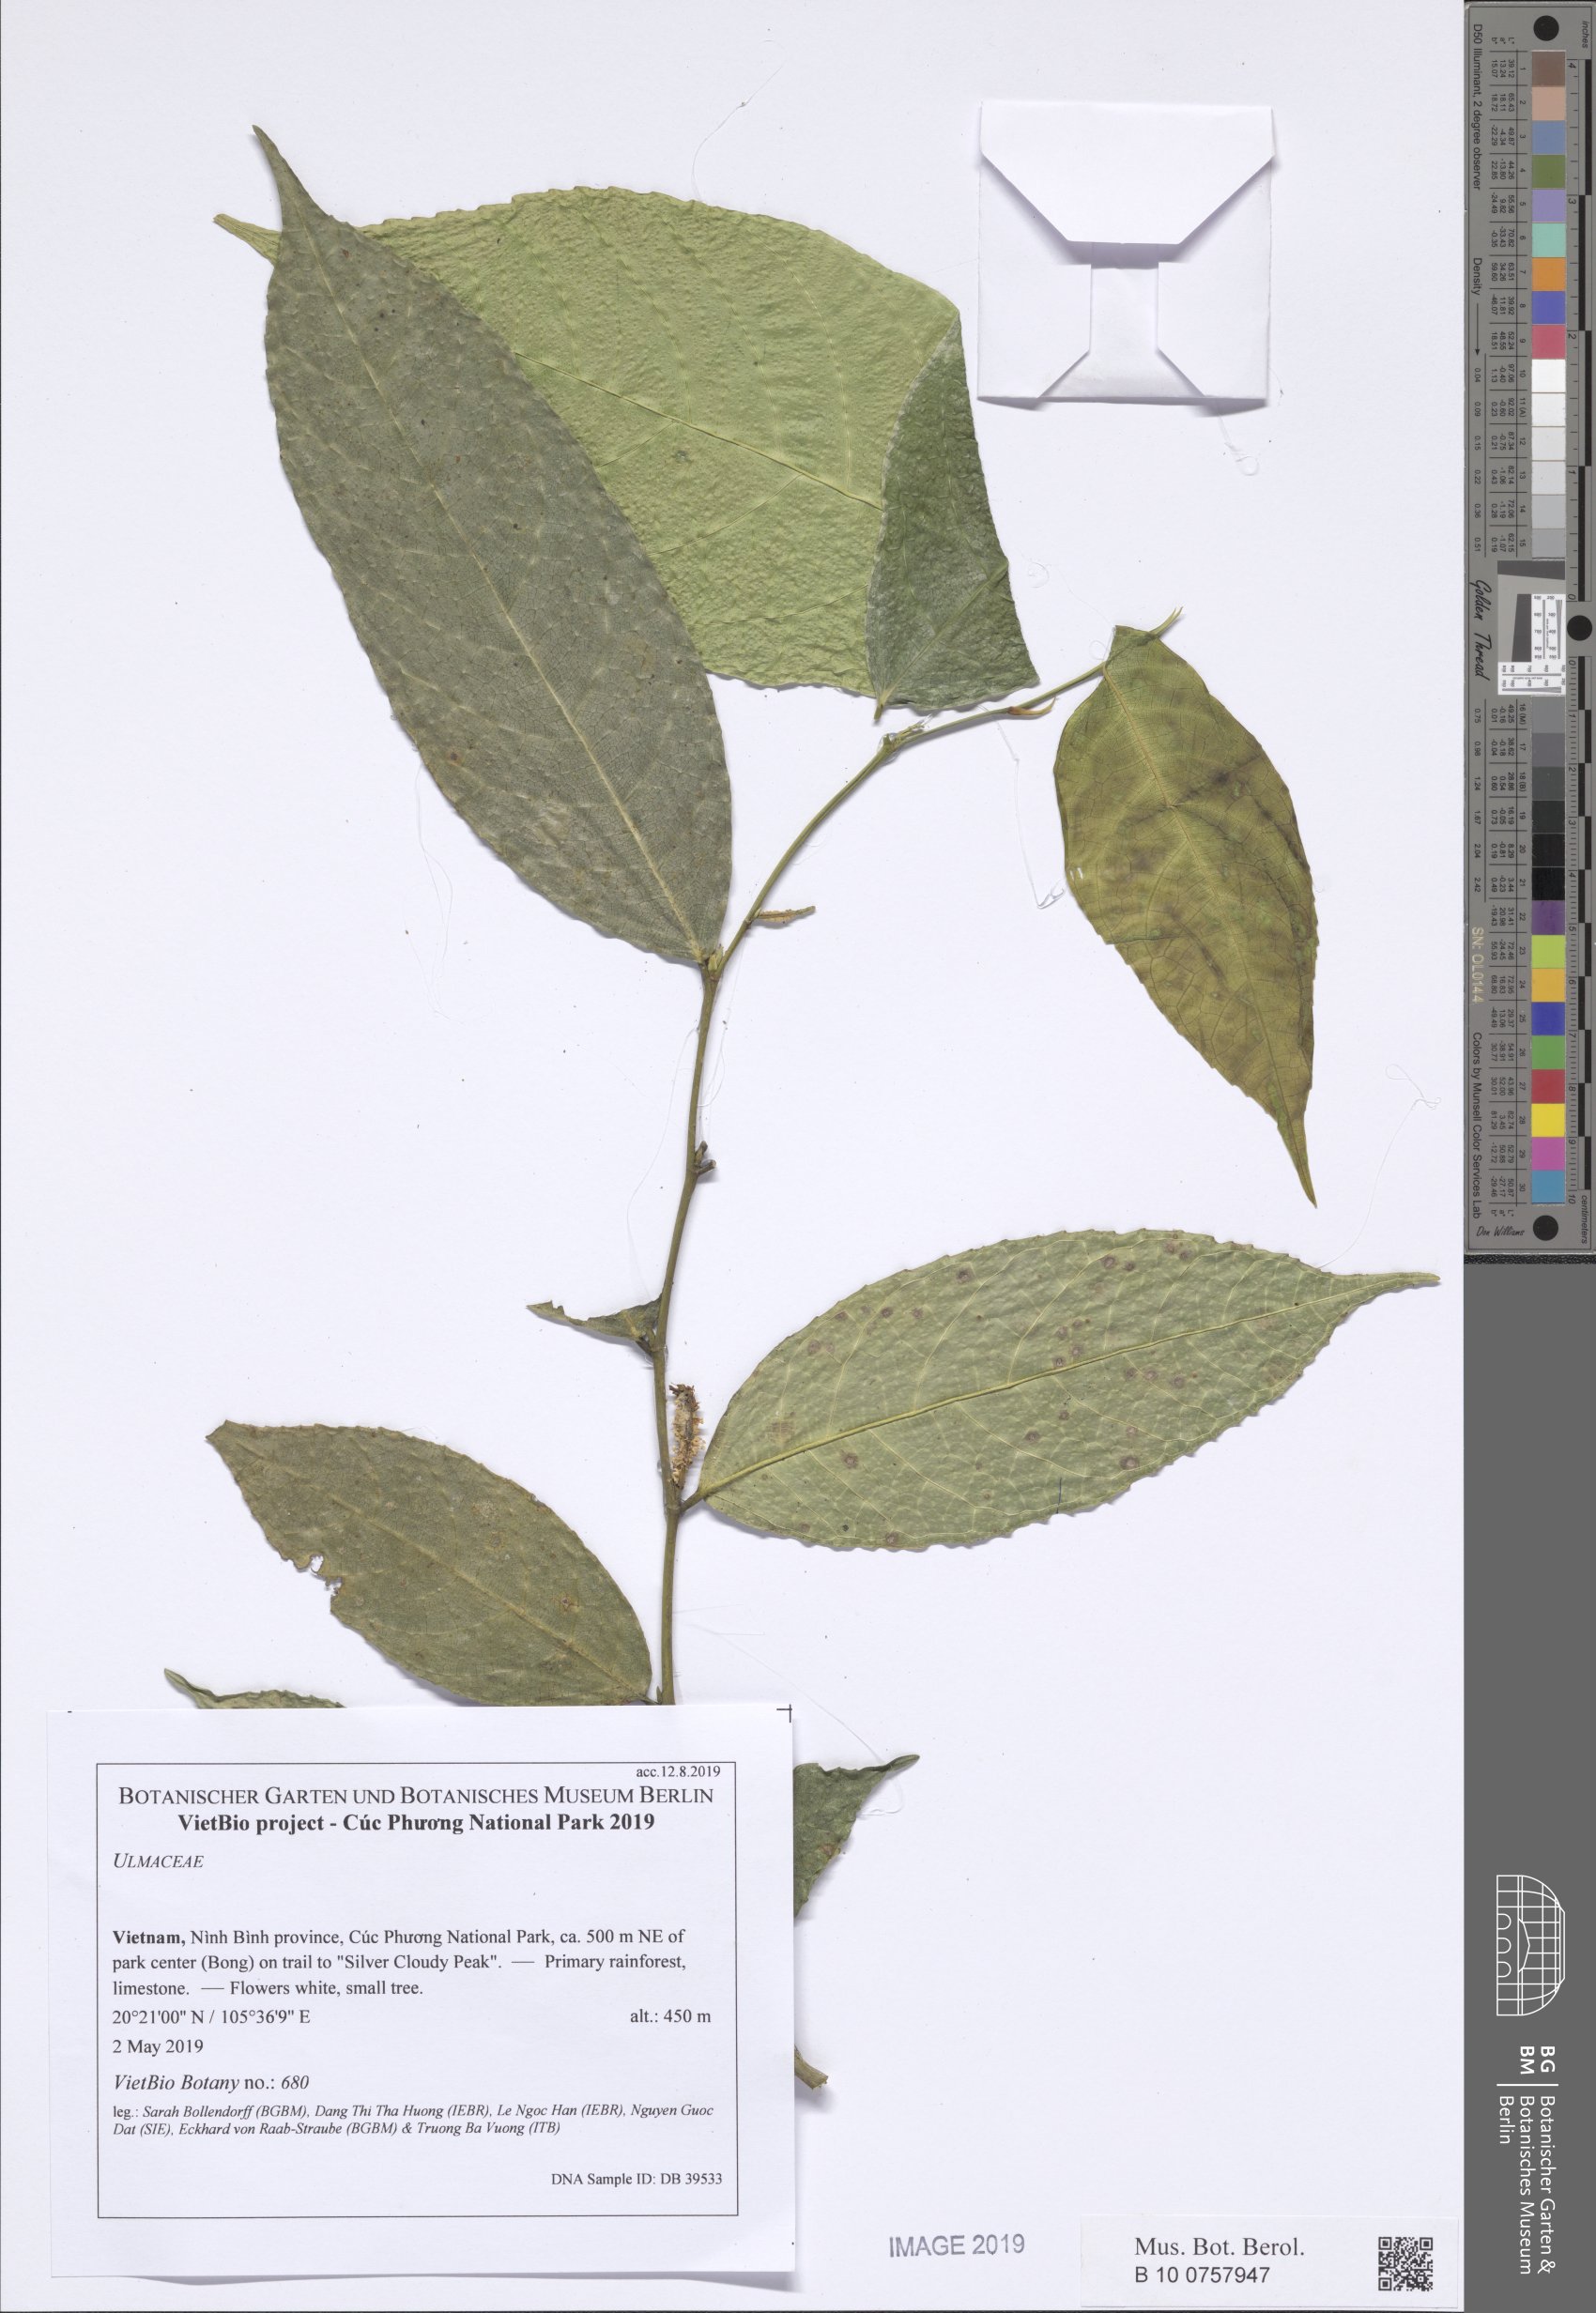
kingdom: Plantae
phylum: Tracheophyta
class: Magnoliopsida
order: Rosales
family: Ulmaceae
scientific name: Ulmaceae
